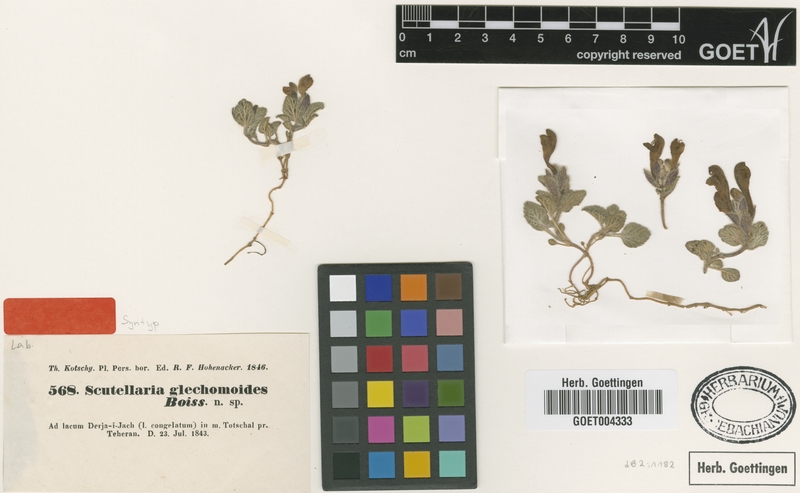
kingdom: Plantae
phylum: Tracheophyta
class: Magnoliopsida
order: Lamiales
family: Lamiaceae
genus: Scutellaria
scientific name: Scutellaria glechomoides
